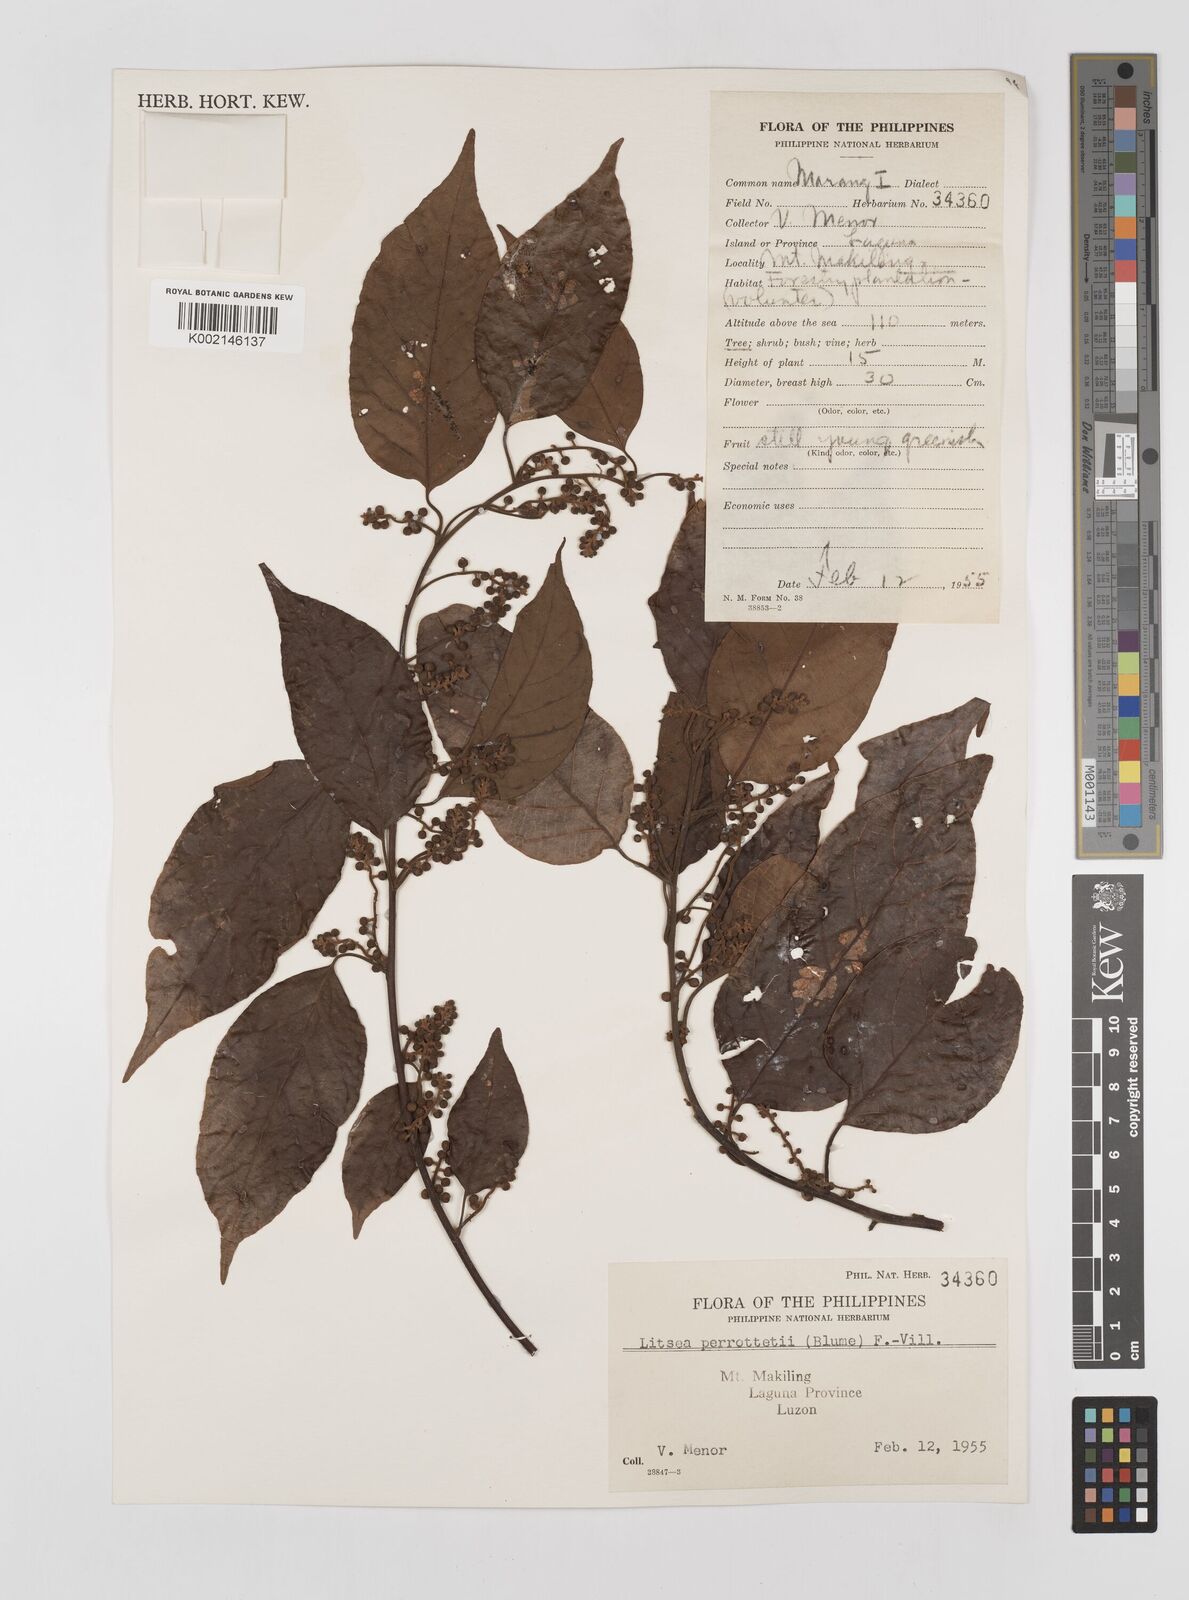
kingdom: Plantae
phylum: Tracheophyta
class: Magnoliopsida
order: Laurales
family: Lauraceae
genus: Litsea
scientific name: Litsea cordata
